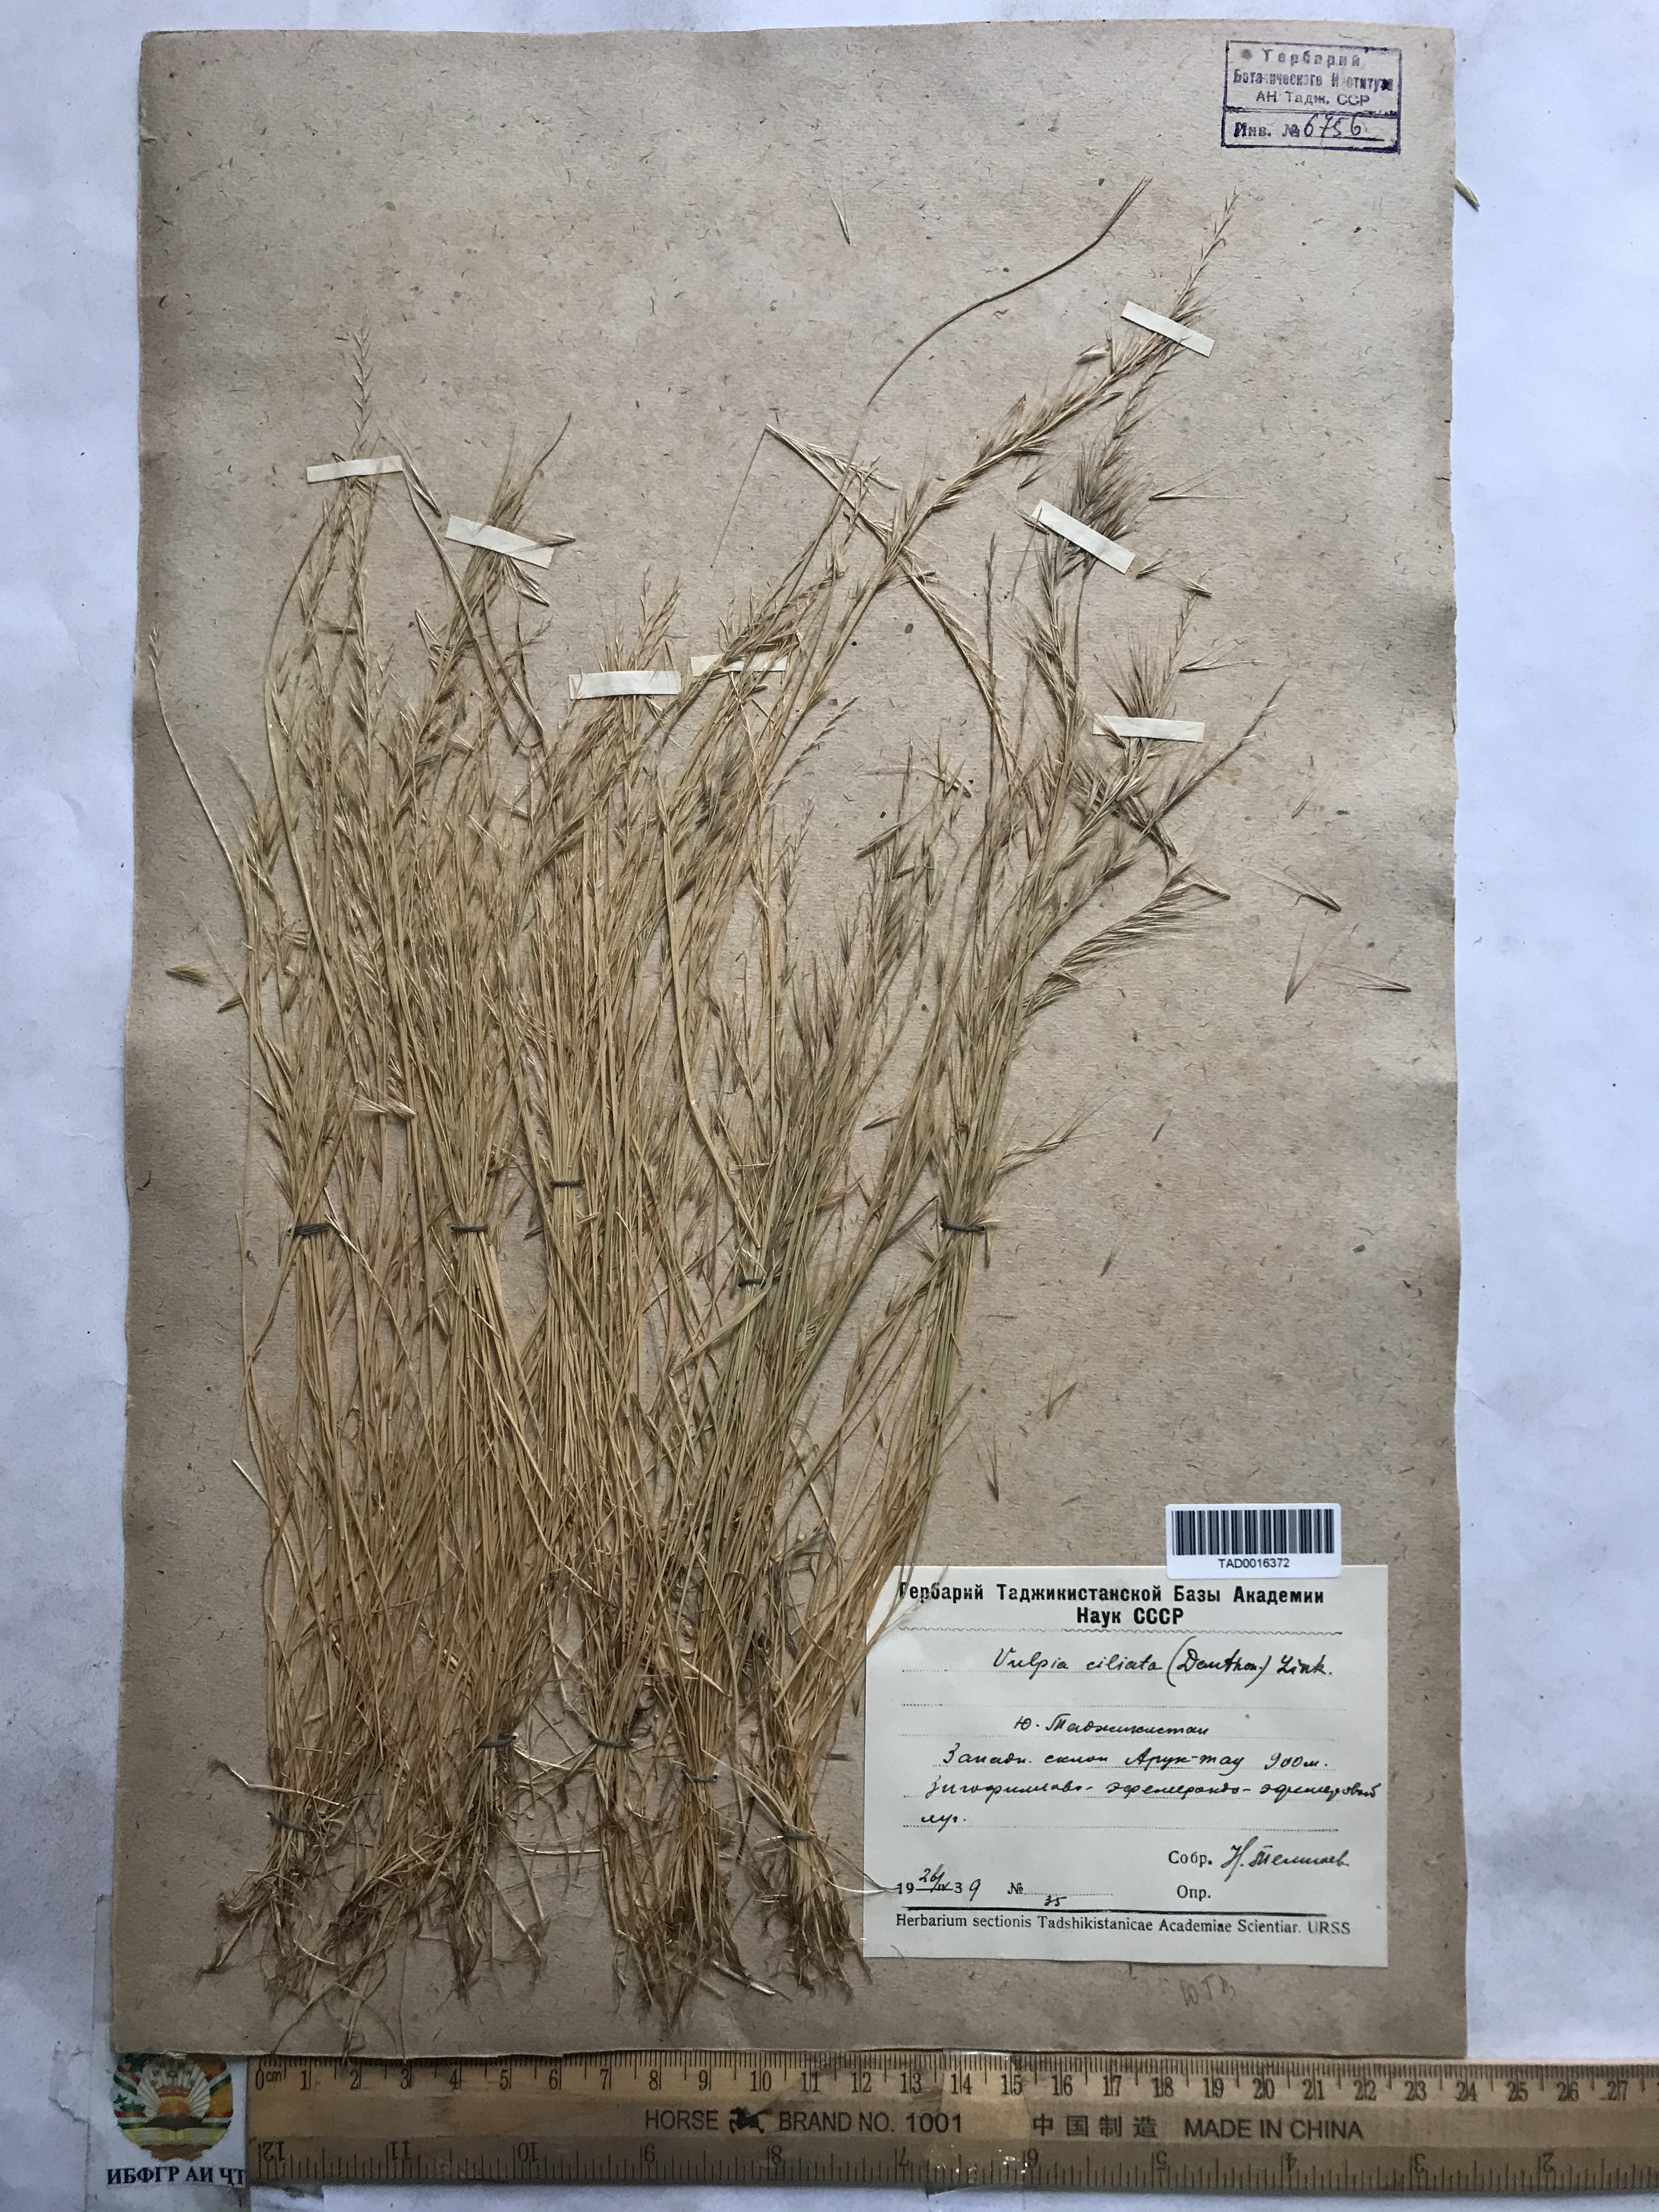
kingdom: Plantae
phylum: Tracheophyta
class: Liliopsida
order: Poales
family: Poaceae
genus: Festuca
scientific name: Festuca ambigua
